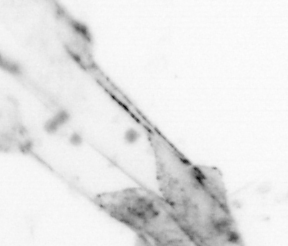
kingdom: Animalia
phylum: Chaetognatha
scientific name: Chaetognatha
